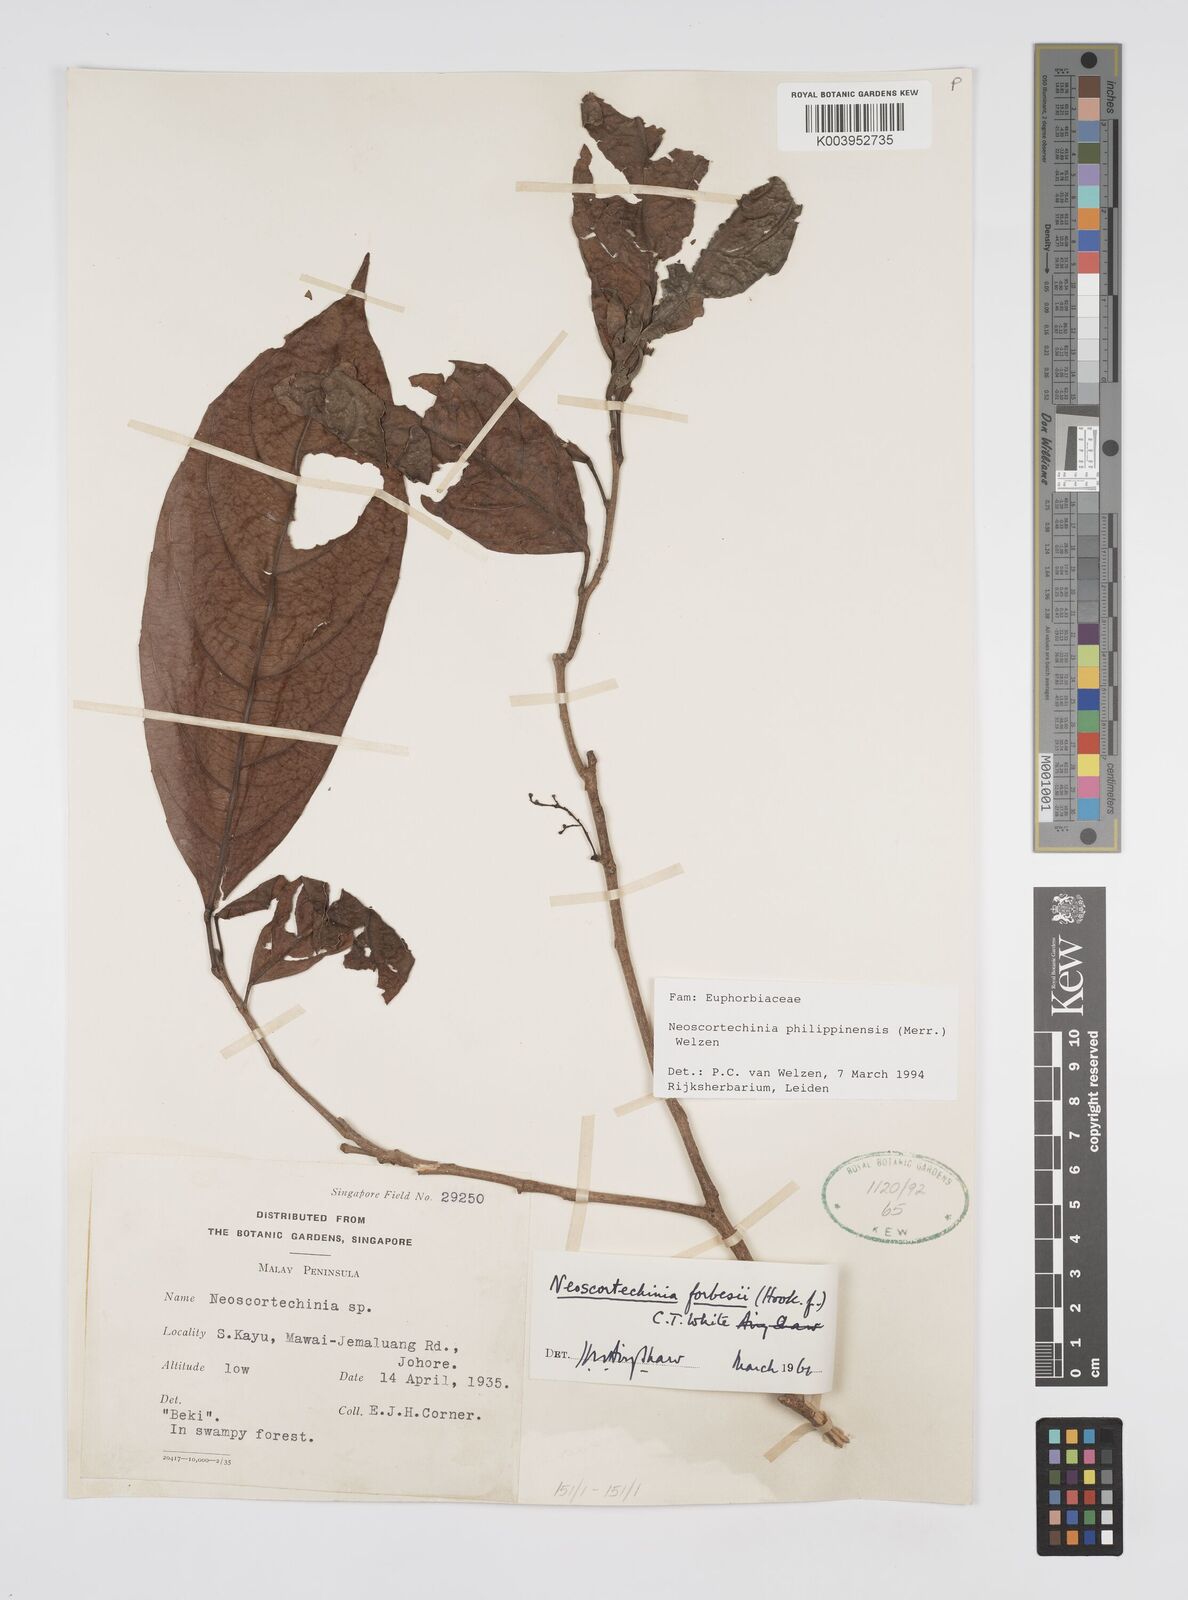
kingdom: Plantae
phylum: Tracheophyta
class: Magnoliopsida
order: Malpighiales
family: Euphorbiaceae
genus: Neoscortechinia
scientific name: Neoscortechinia philippinensis
